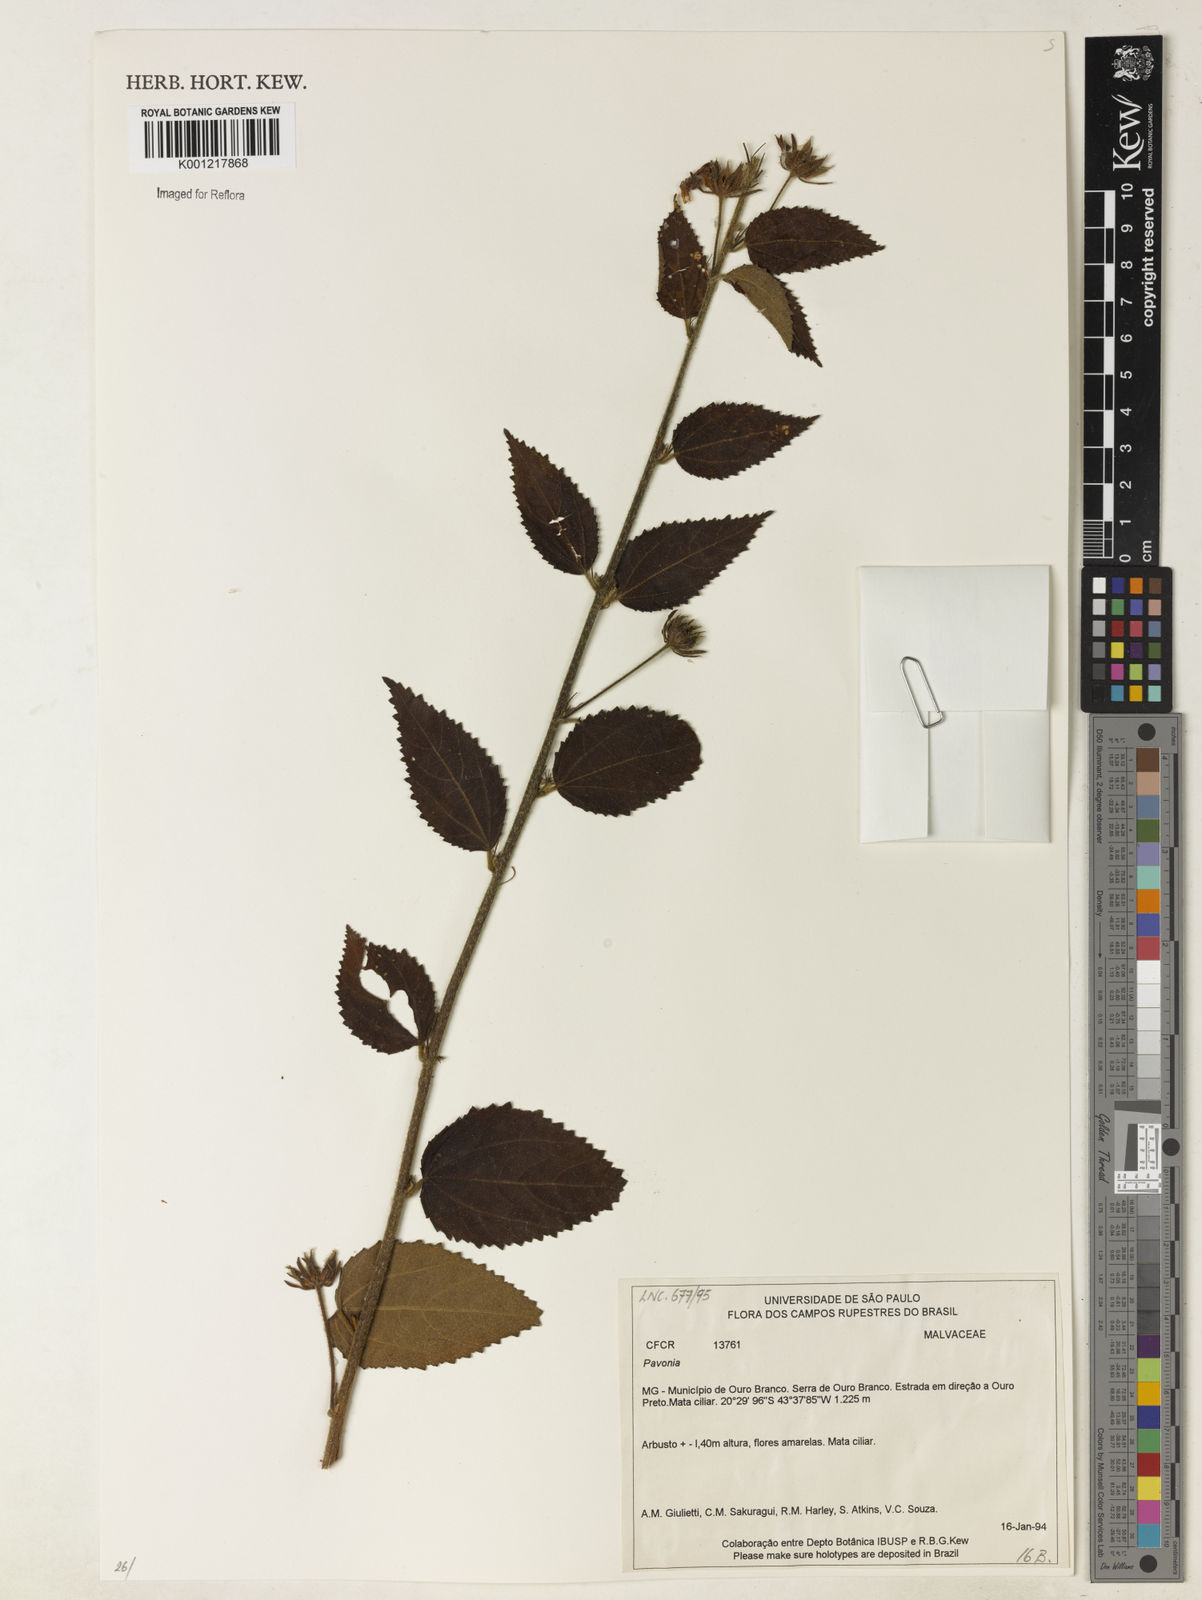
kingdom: Plantae
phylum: Tracheophyta
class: Magnoliopsida
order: Malvales
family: Malvaceae
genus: Pavonia
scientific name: Pavonia
